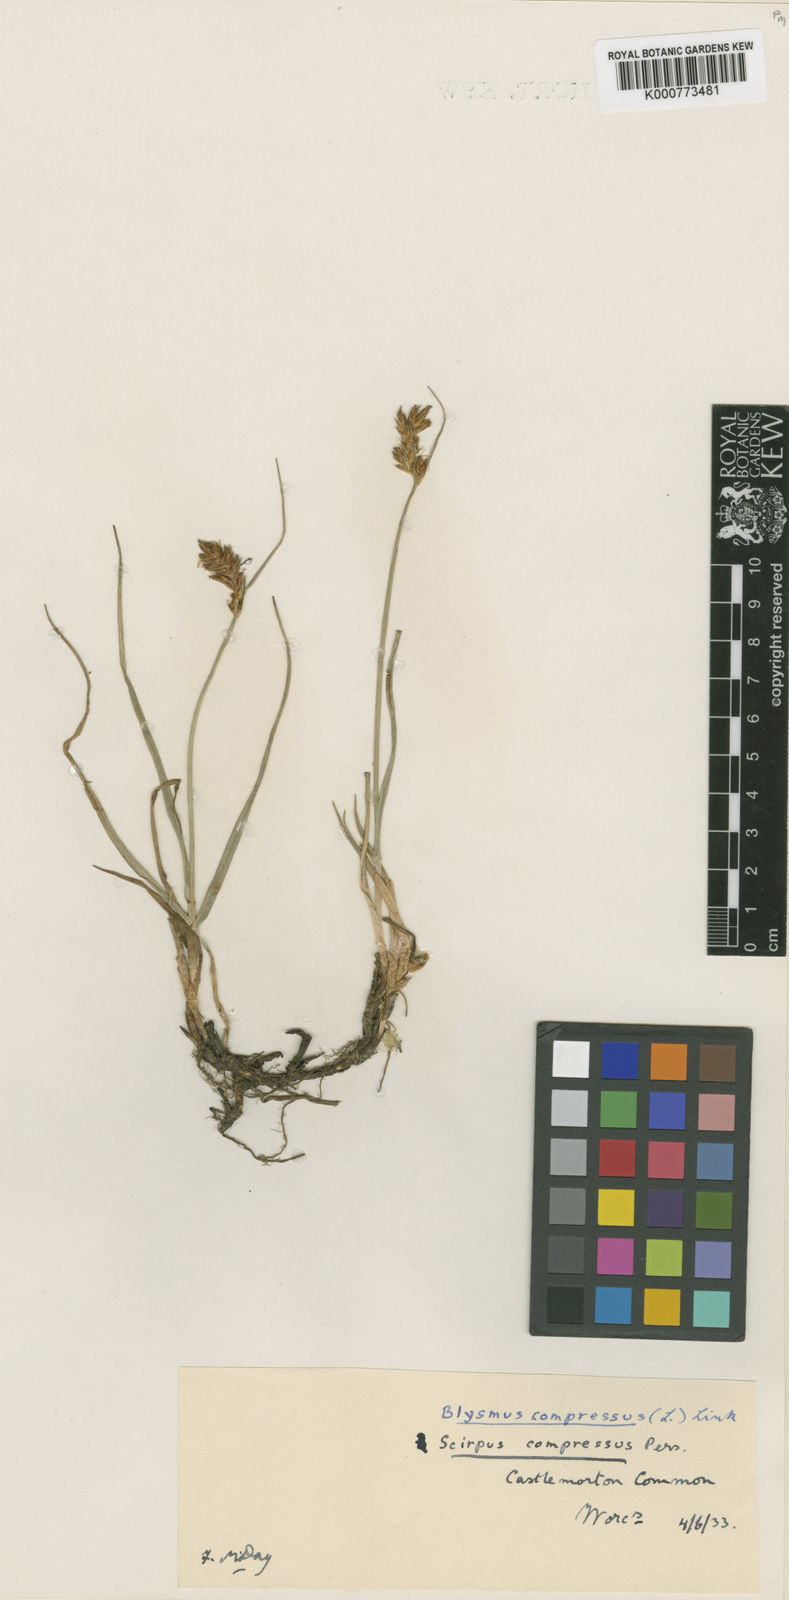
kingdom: Plantae
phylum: Tracheophyta
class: Liliopsida
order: Poales
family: Cyperaceae
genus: Blysmus
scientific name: Blysmus compressus
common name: Flat-sedge
